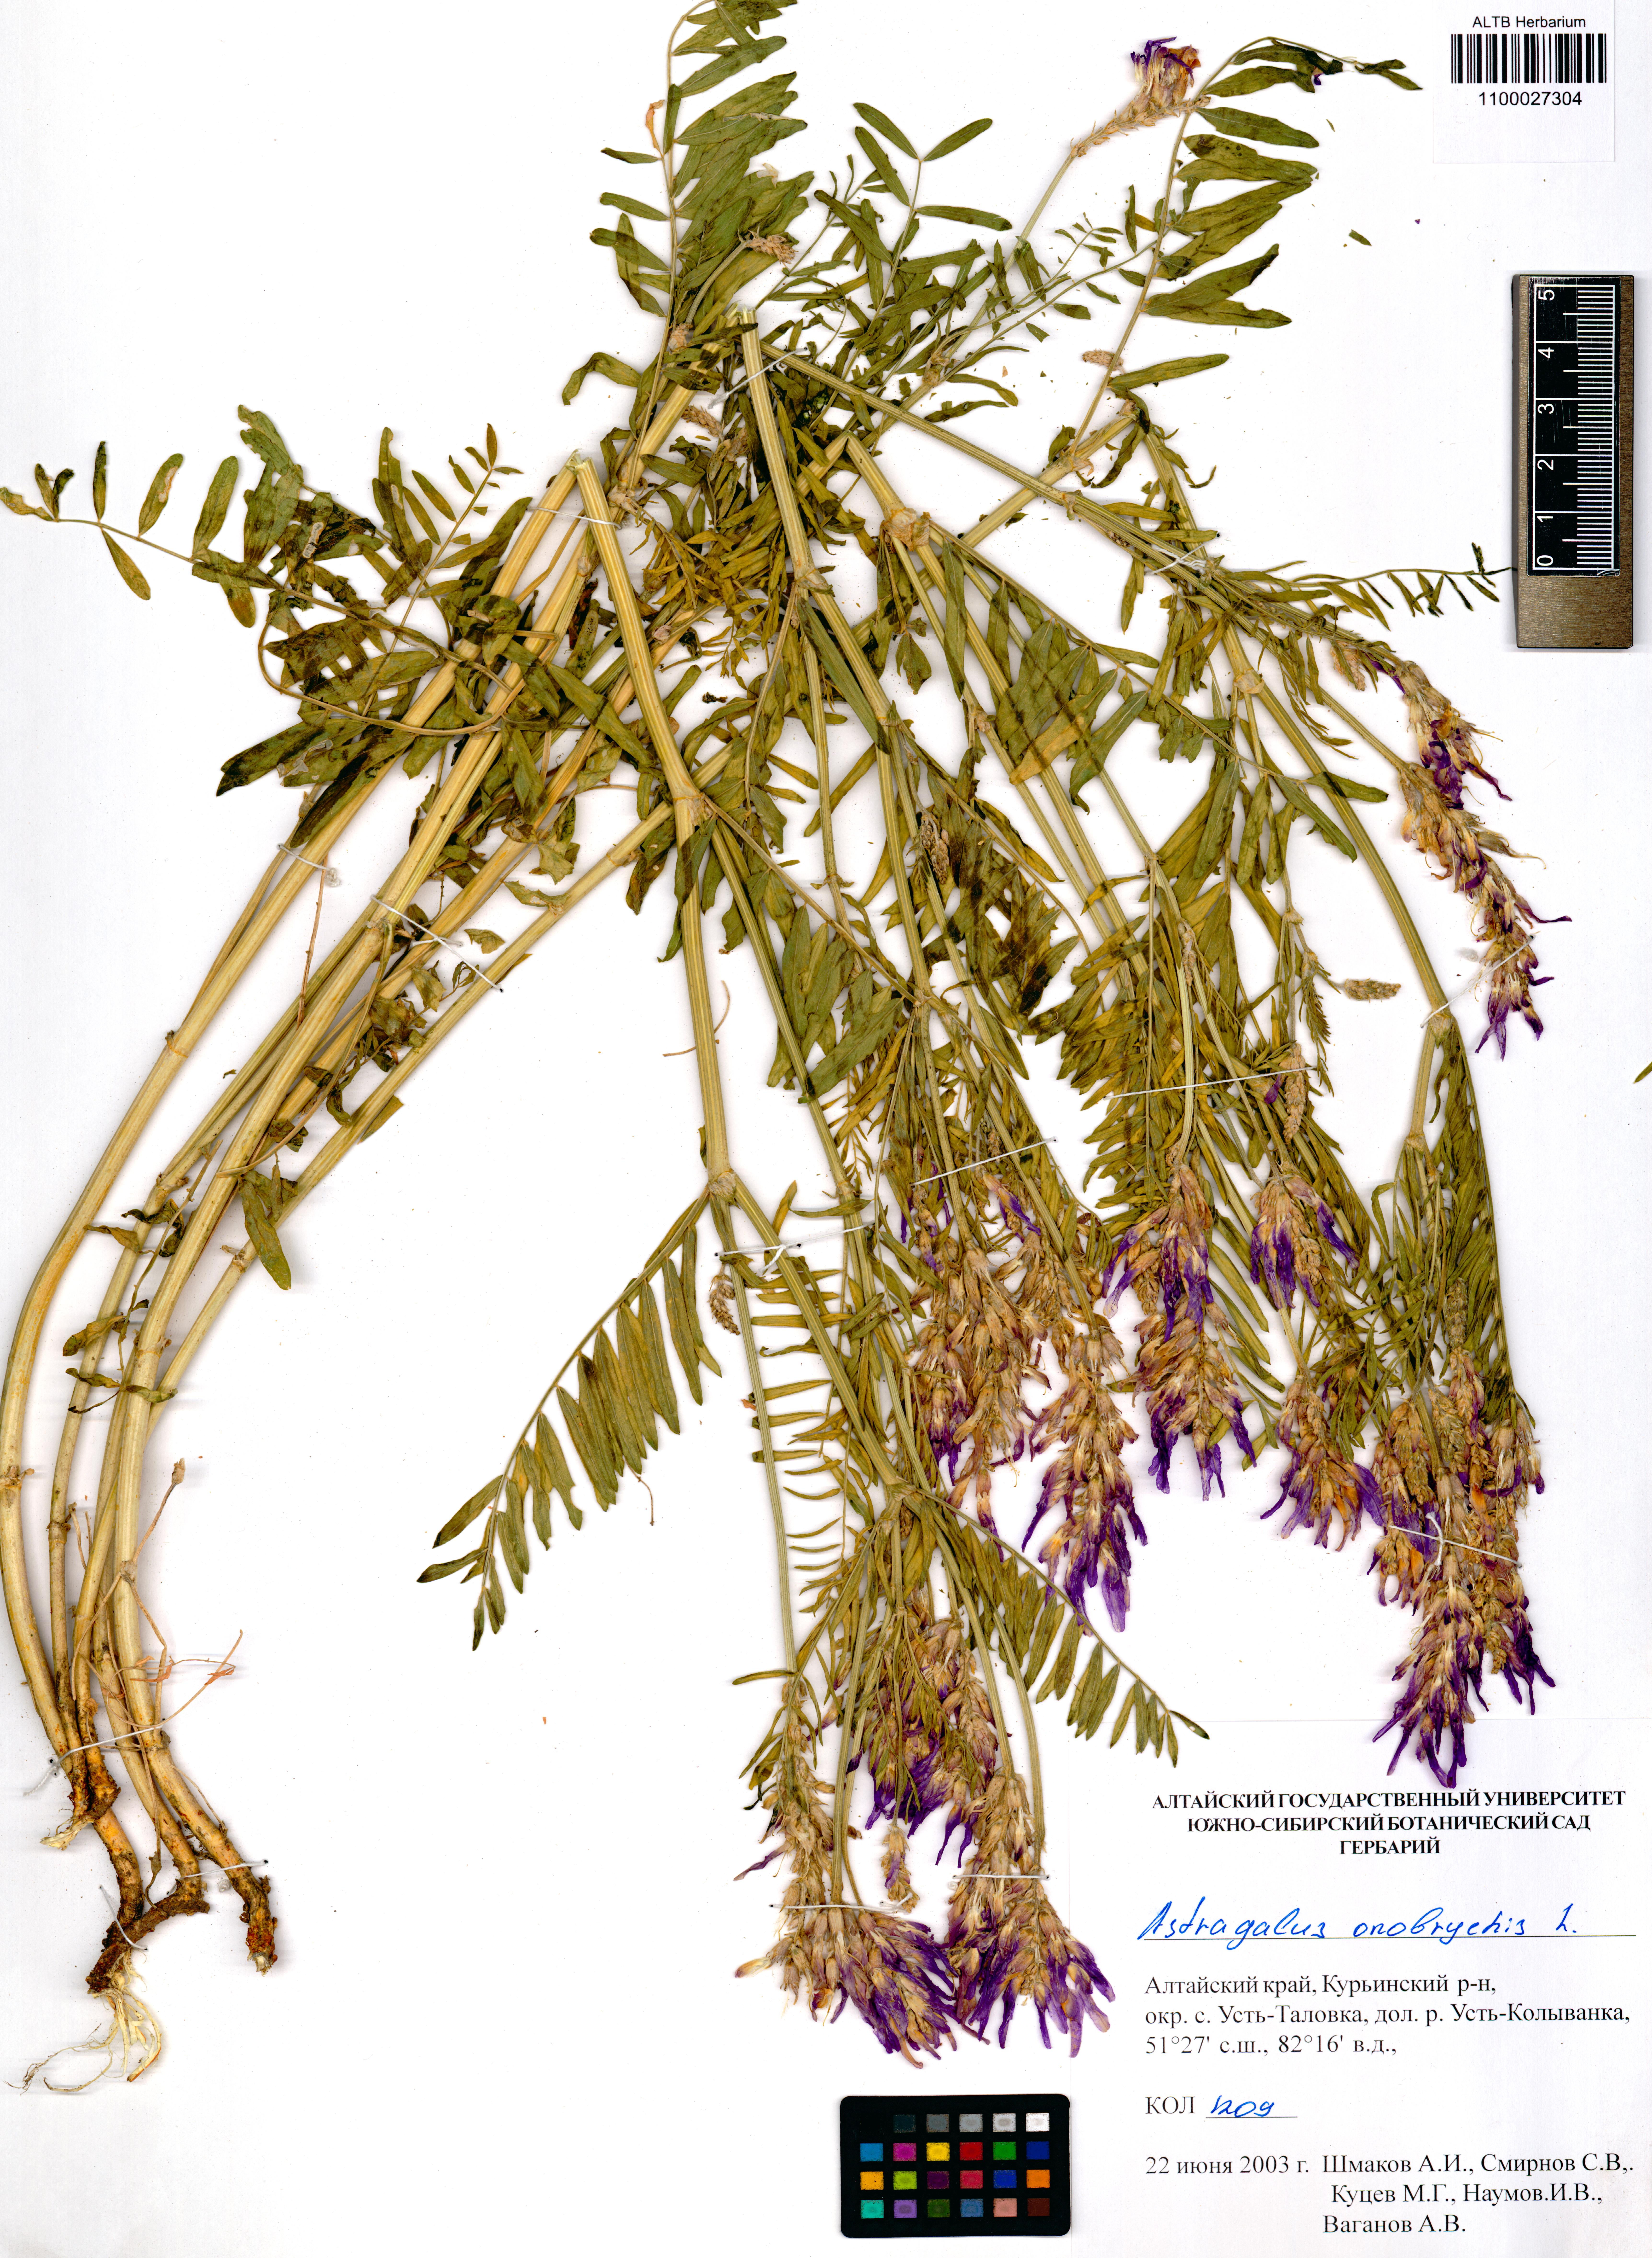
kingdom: Plantae
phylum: Tracheophyta
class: Magnoliopsida
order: Fabales
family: Fabaceae
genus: Astragalus
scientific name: Astragalus onobrychis
